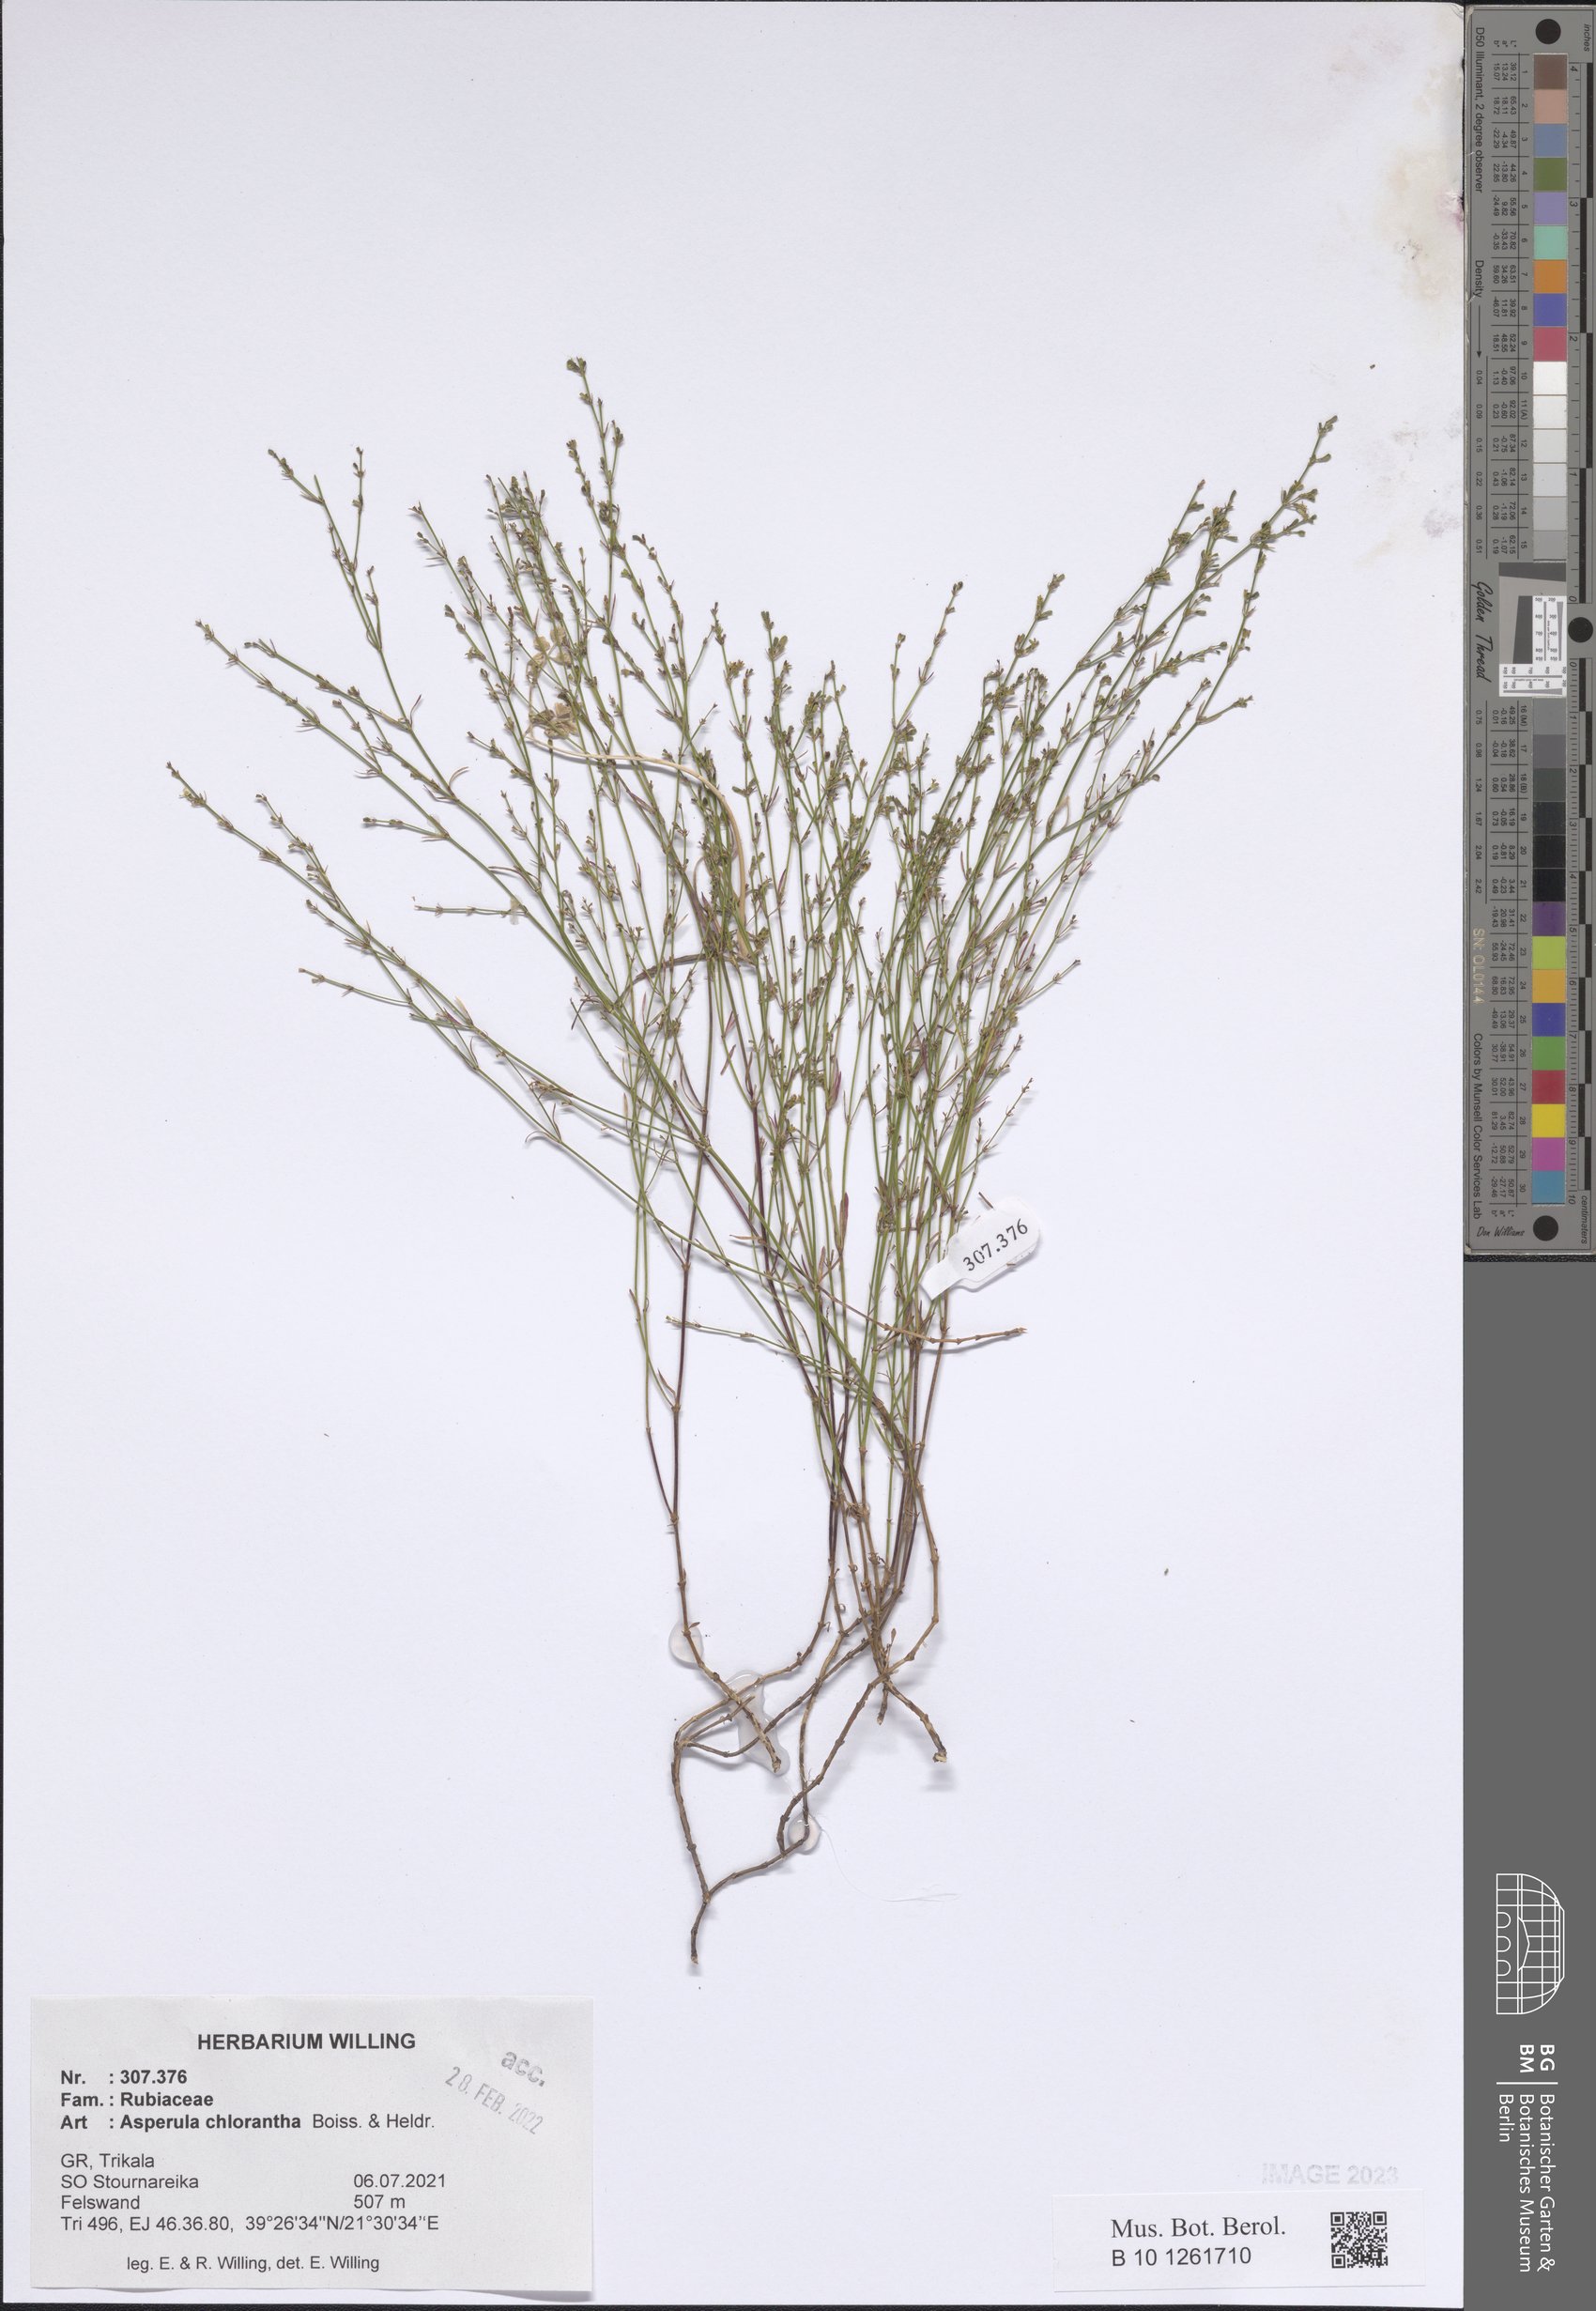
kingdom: Plantae
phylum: Tracheophyta
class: Magnoliopsida
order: Gentianales
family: Rubiaceae
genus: Thliphthisa
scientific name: Thliphthisa chlorantha
